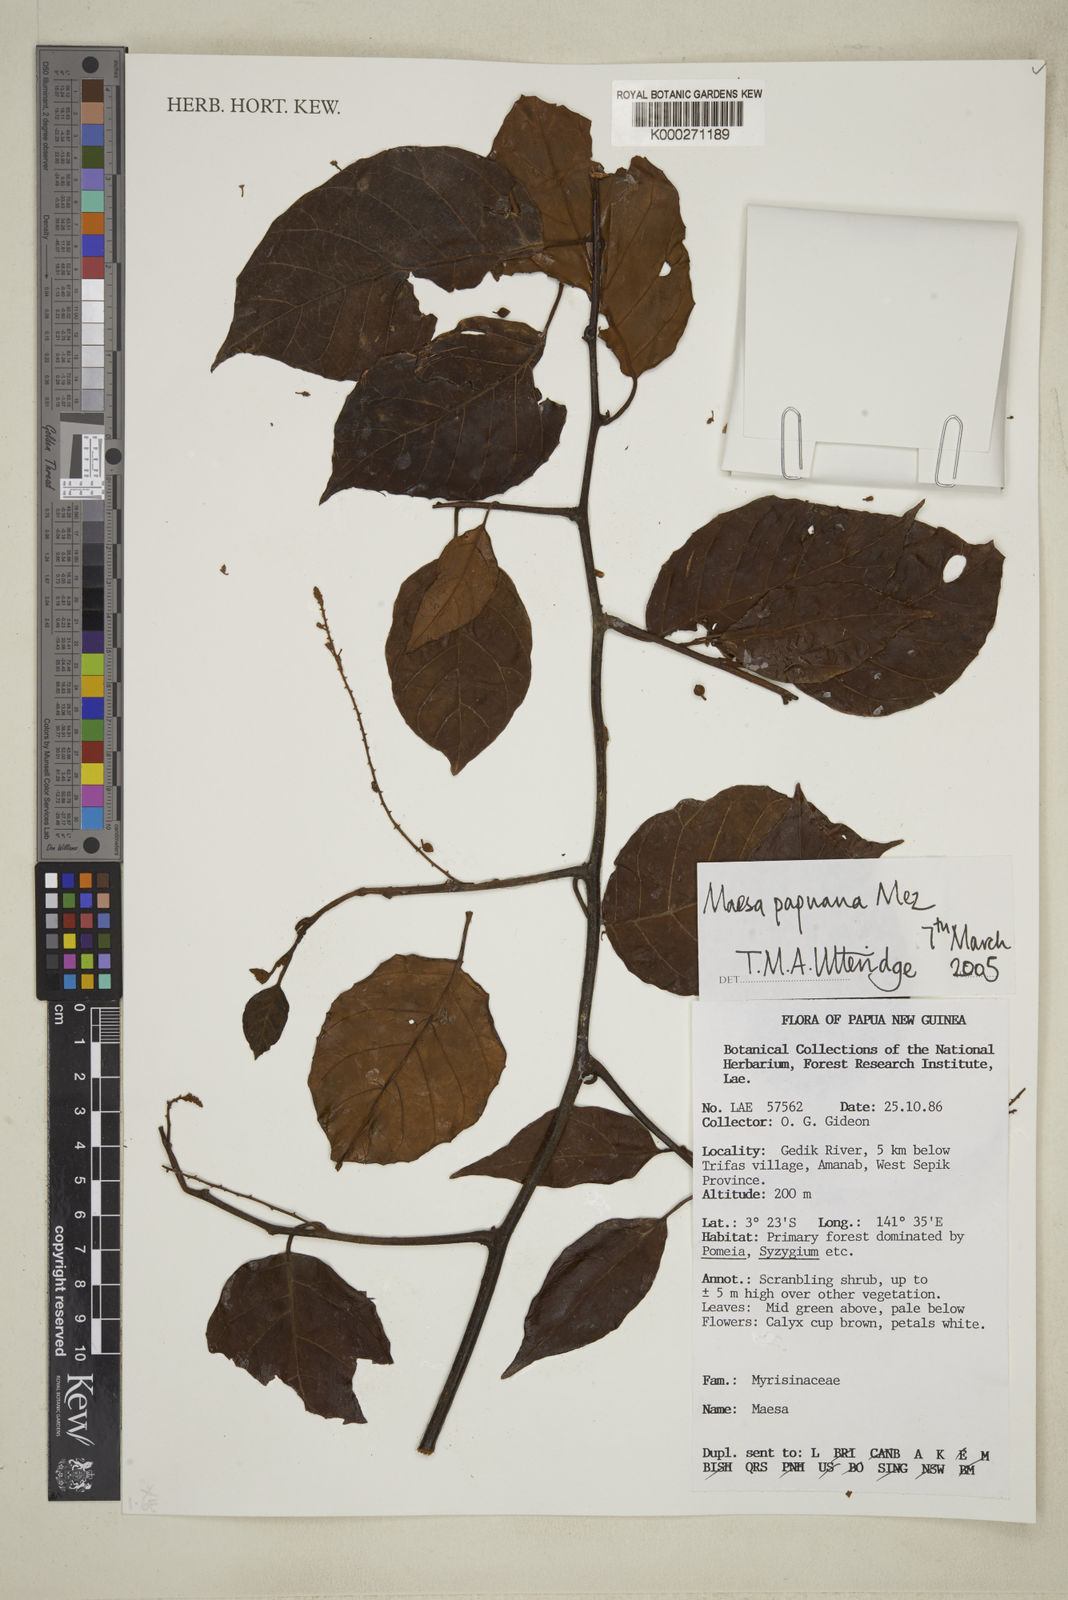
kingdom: Plantae
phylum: Tracheophyta
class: Magnoliopsida
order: Ericales
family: Primulaceae
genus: Maesa
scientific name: Maesa
